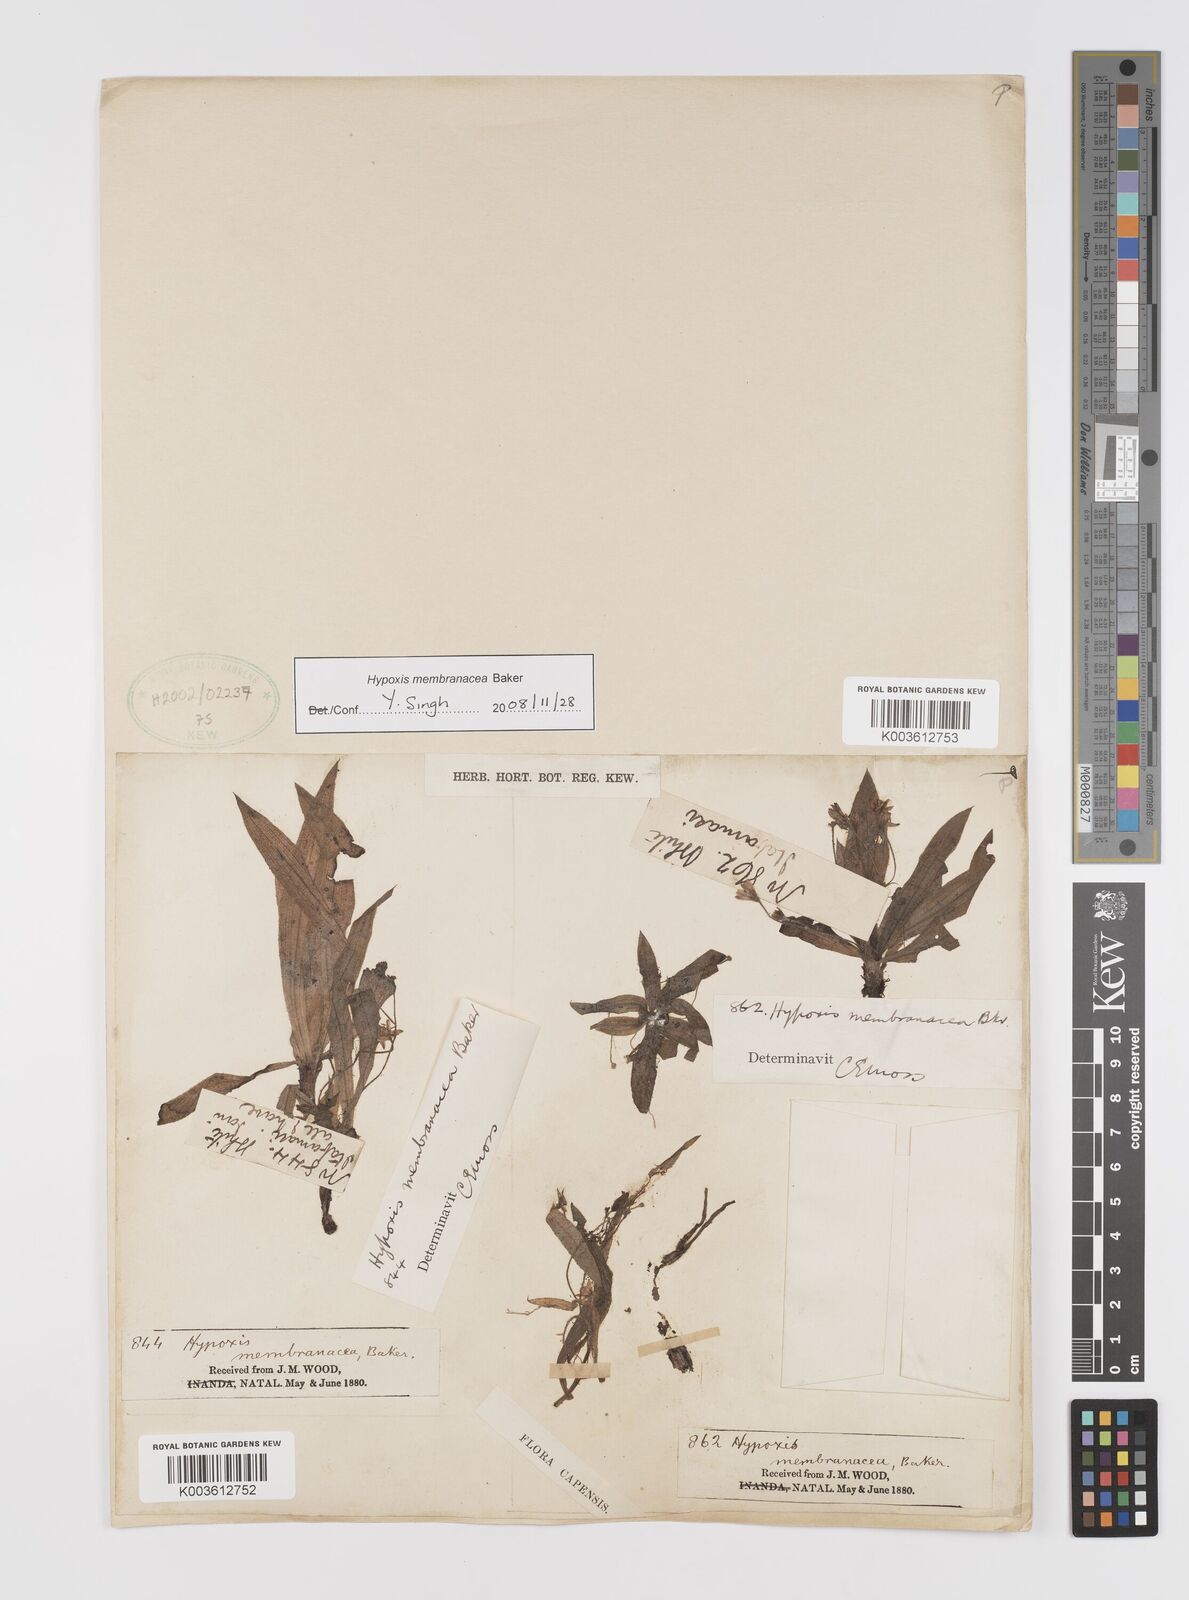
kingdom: Plantae
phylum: Tracheophyta
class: Liliopsida
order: Asparagales
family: Hypoxidaceae
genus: Hypoxis
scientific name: Hypoxis membranacea
